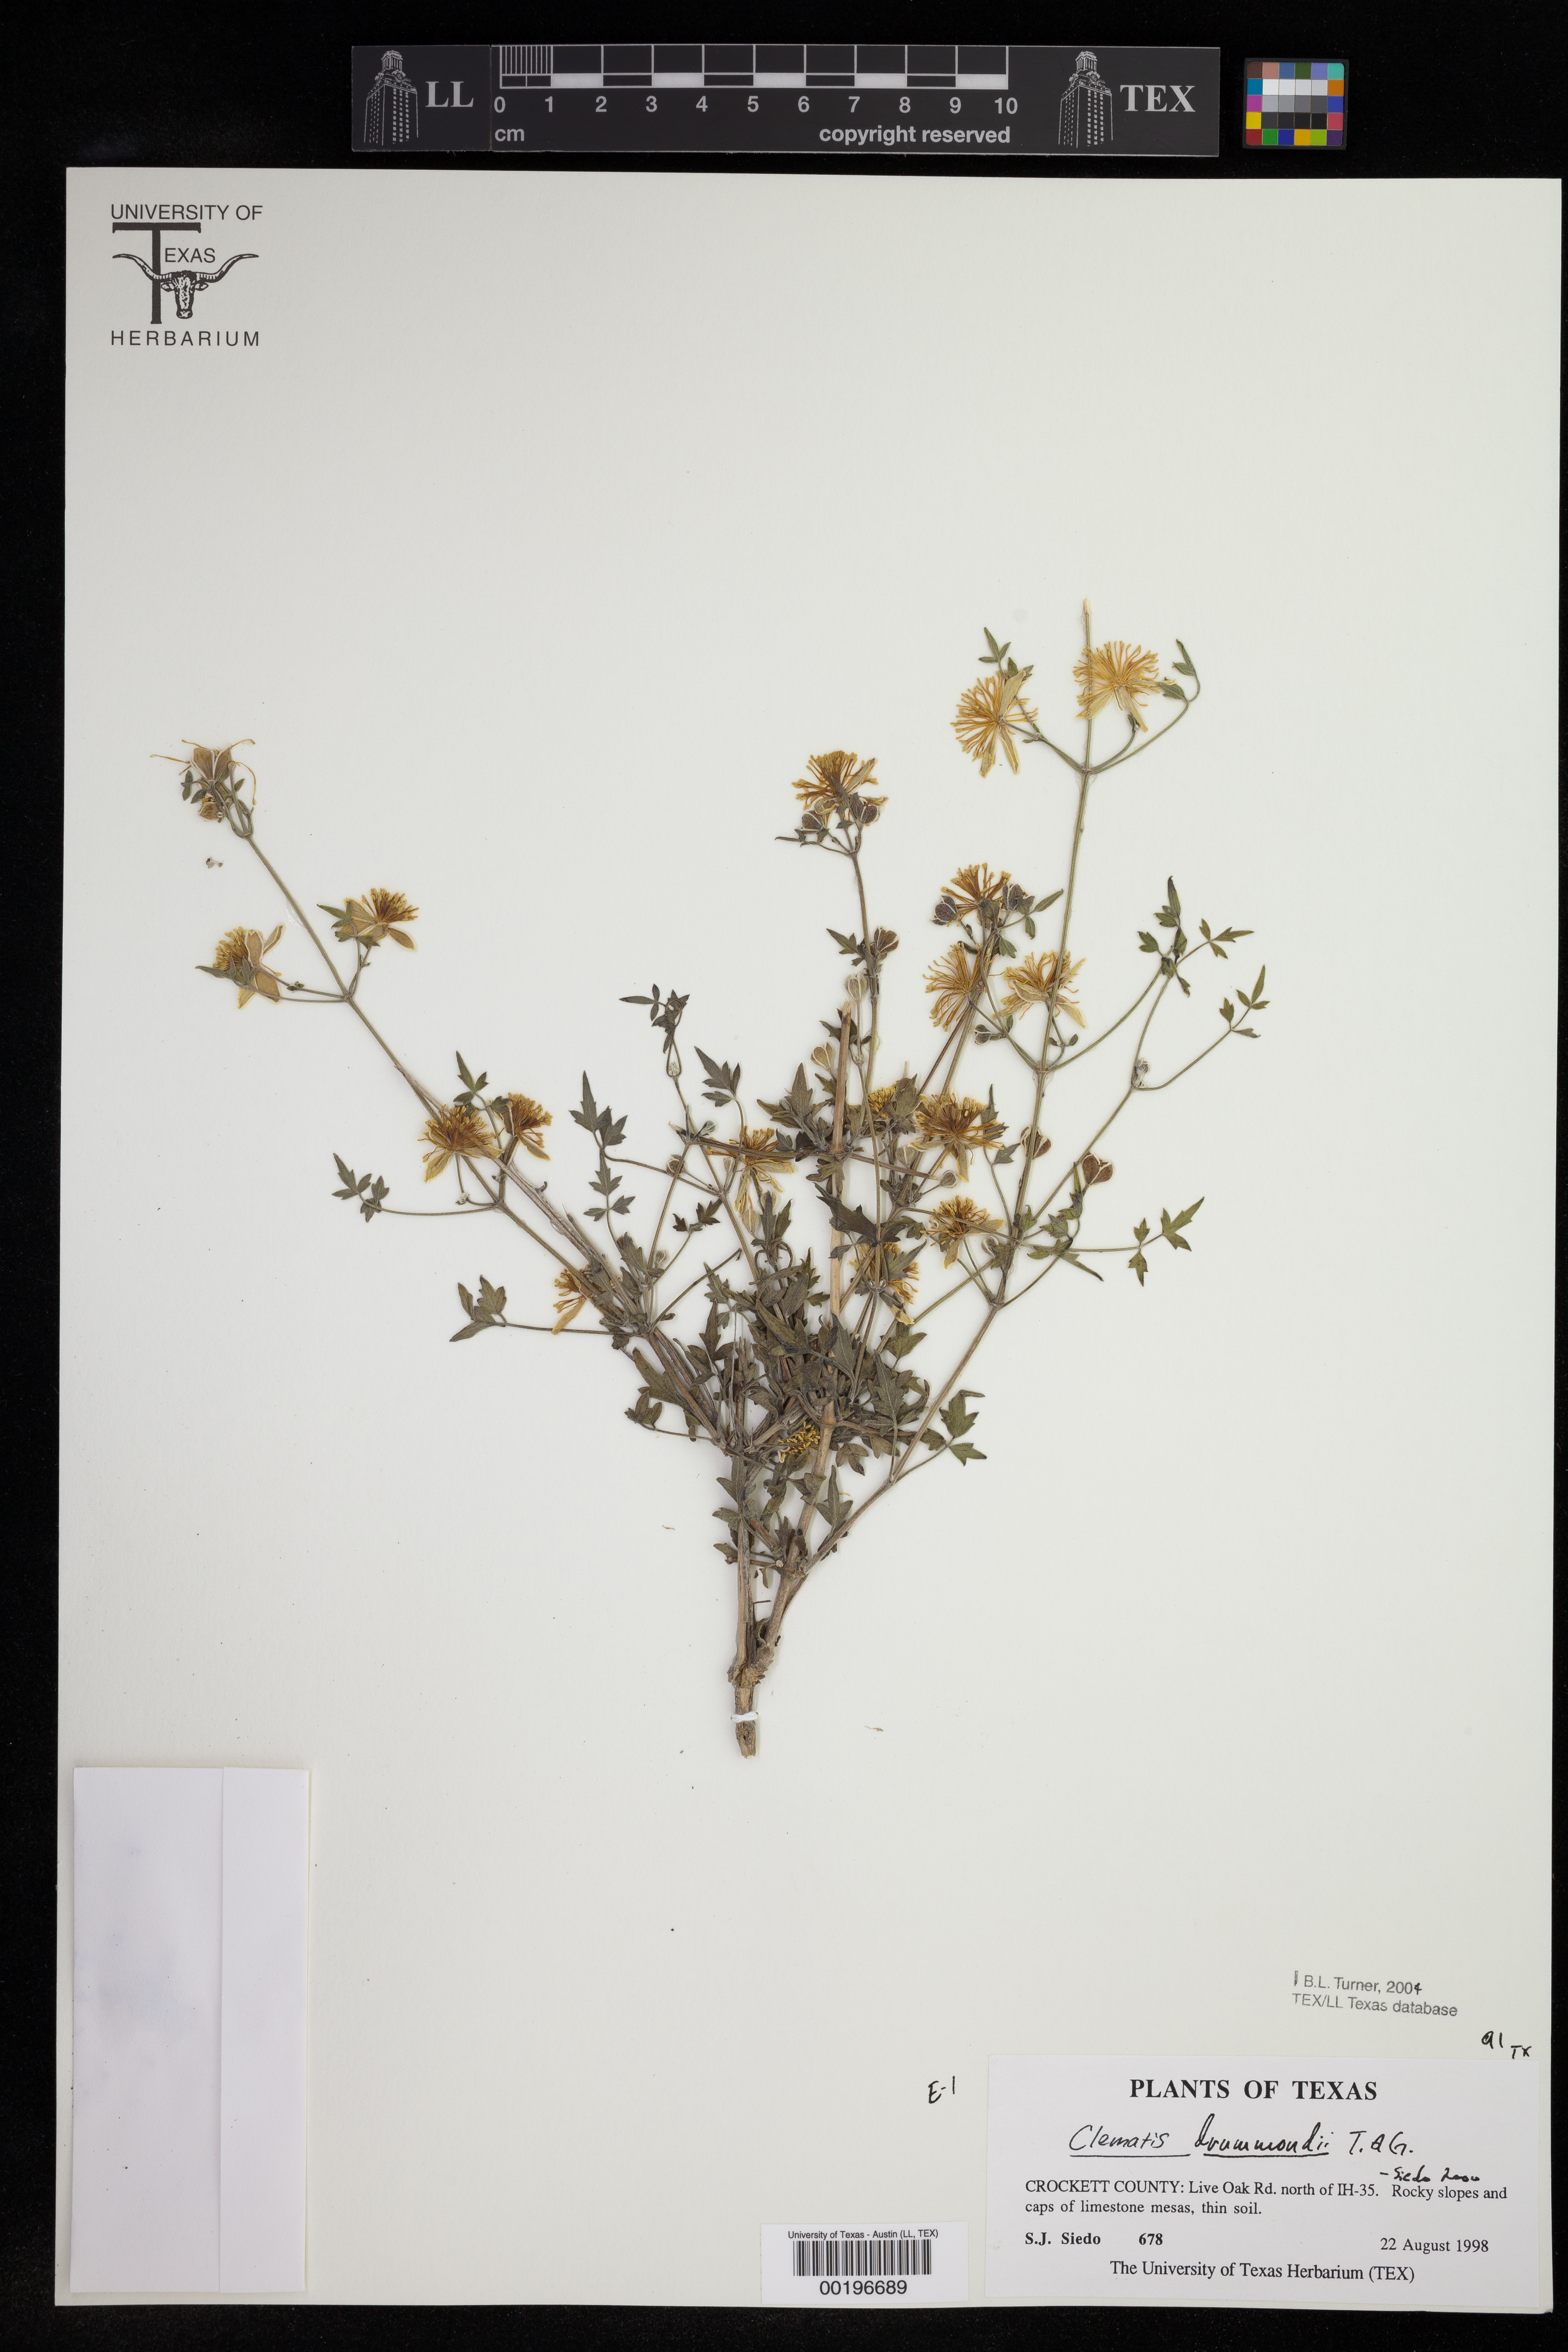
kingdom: Plantae
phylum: Tracheophyta
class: Magnoliopsida
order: Ranunculales
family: Ranunculaceae
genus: Clematis
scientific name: Clematis drummondii
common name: Texas virgin's bower
